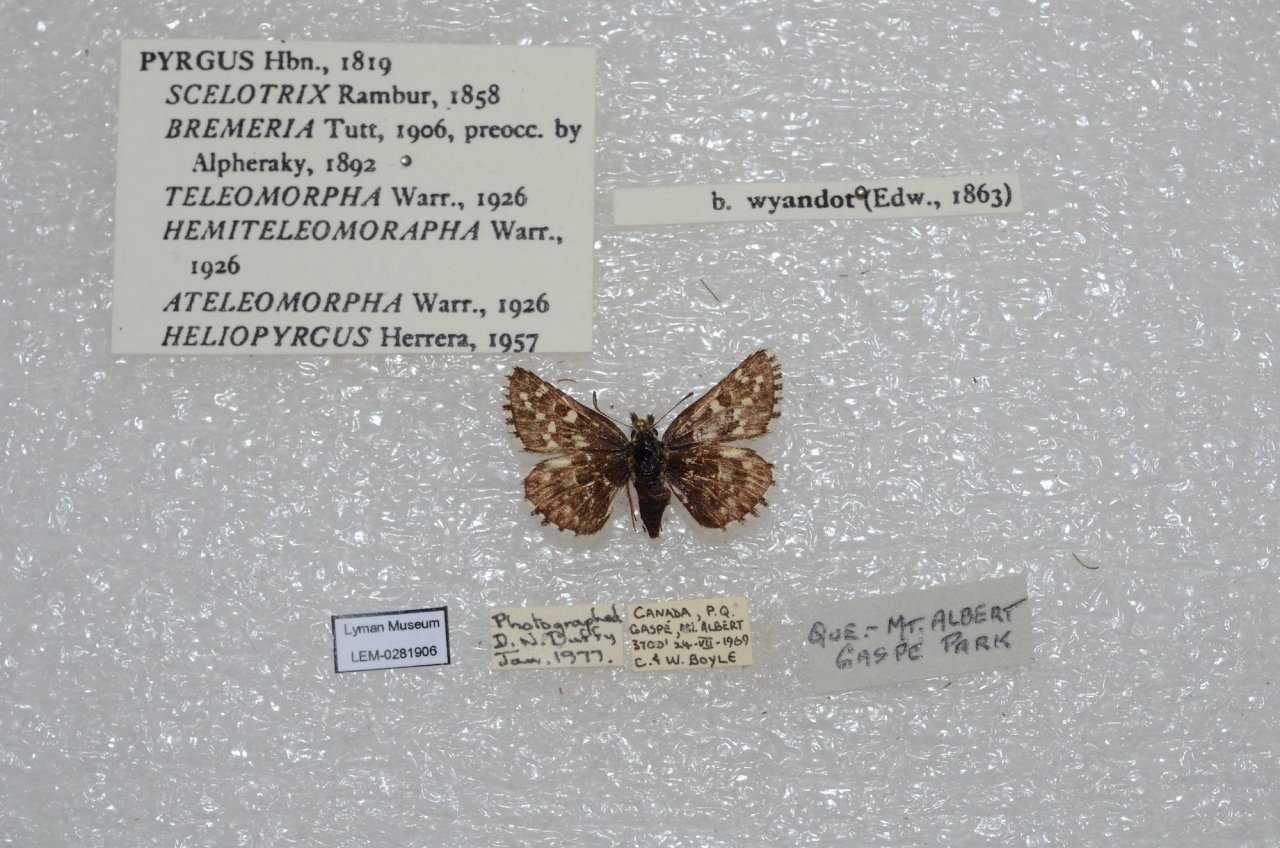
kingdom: Animalia
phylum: Arthropoda
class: Insecta
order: Lepidoptera
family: Hesperiidae
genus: Pyrgus
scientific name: Pyrgus centaureae
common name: Grizzled Skipper
